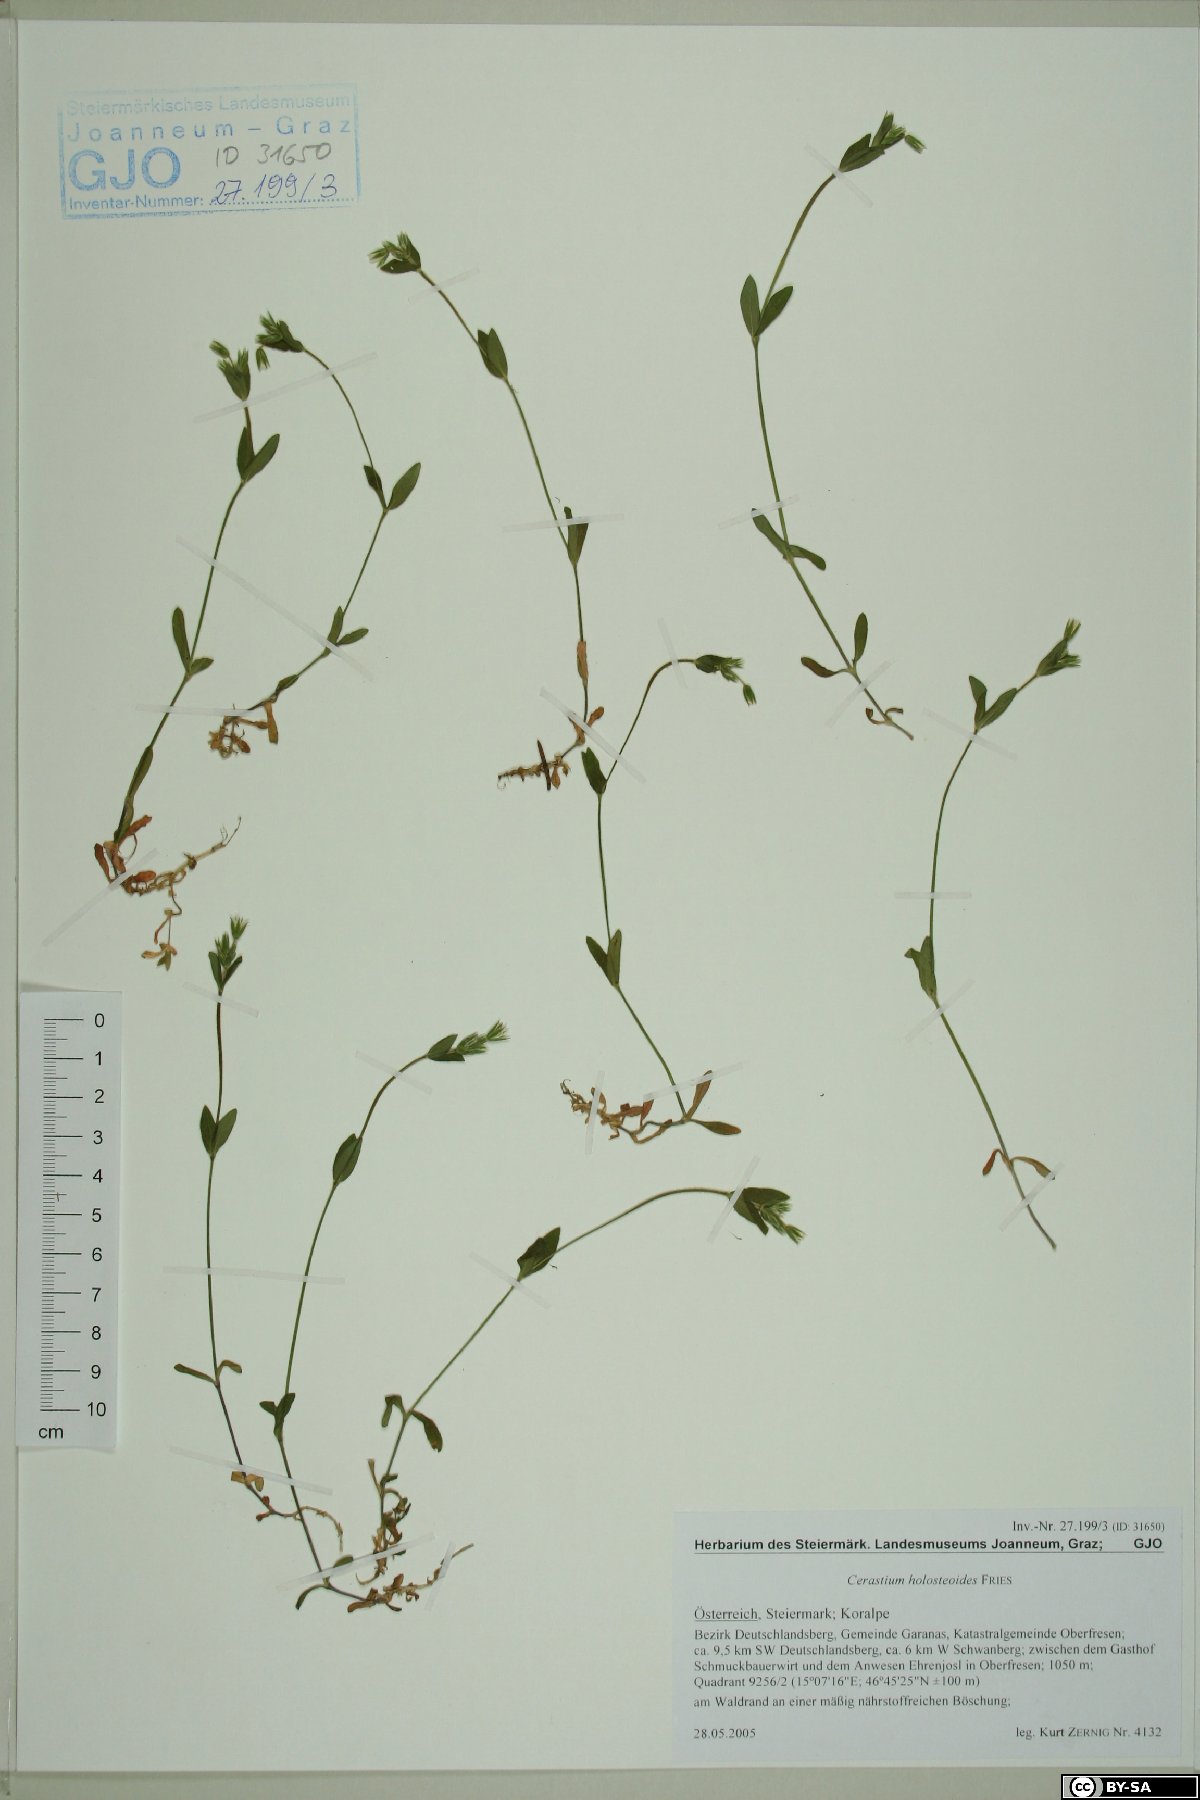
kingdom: Plantae
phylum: Tracheophyta
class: Magnoliopsida
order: Caryophyllales
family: Caryophyllaceae
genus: Cerastium
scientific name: Cerastium holosteoides
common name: Big chickweed
